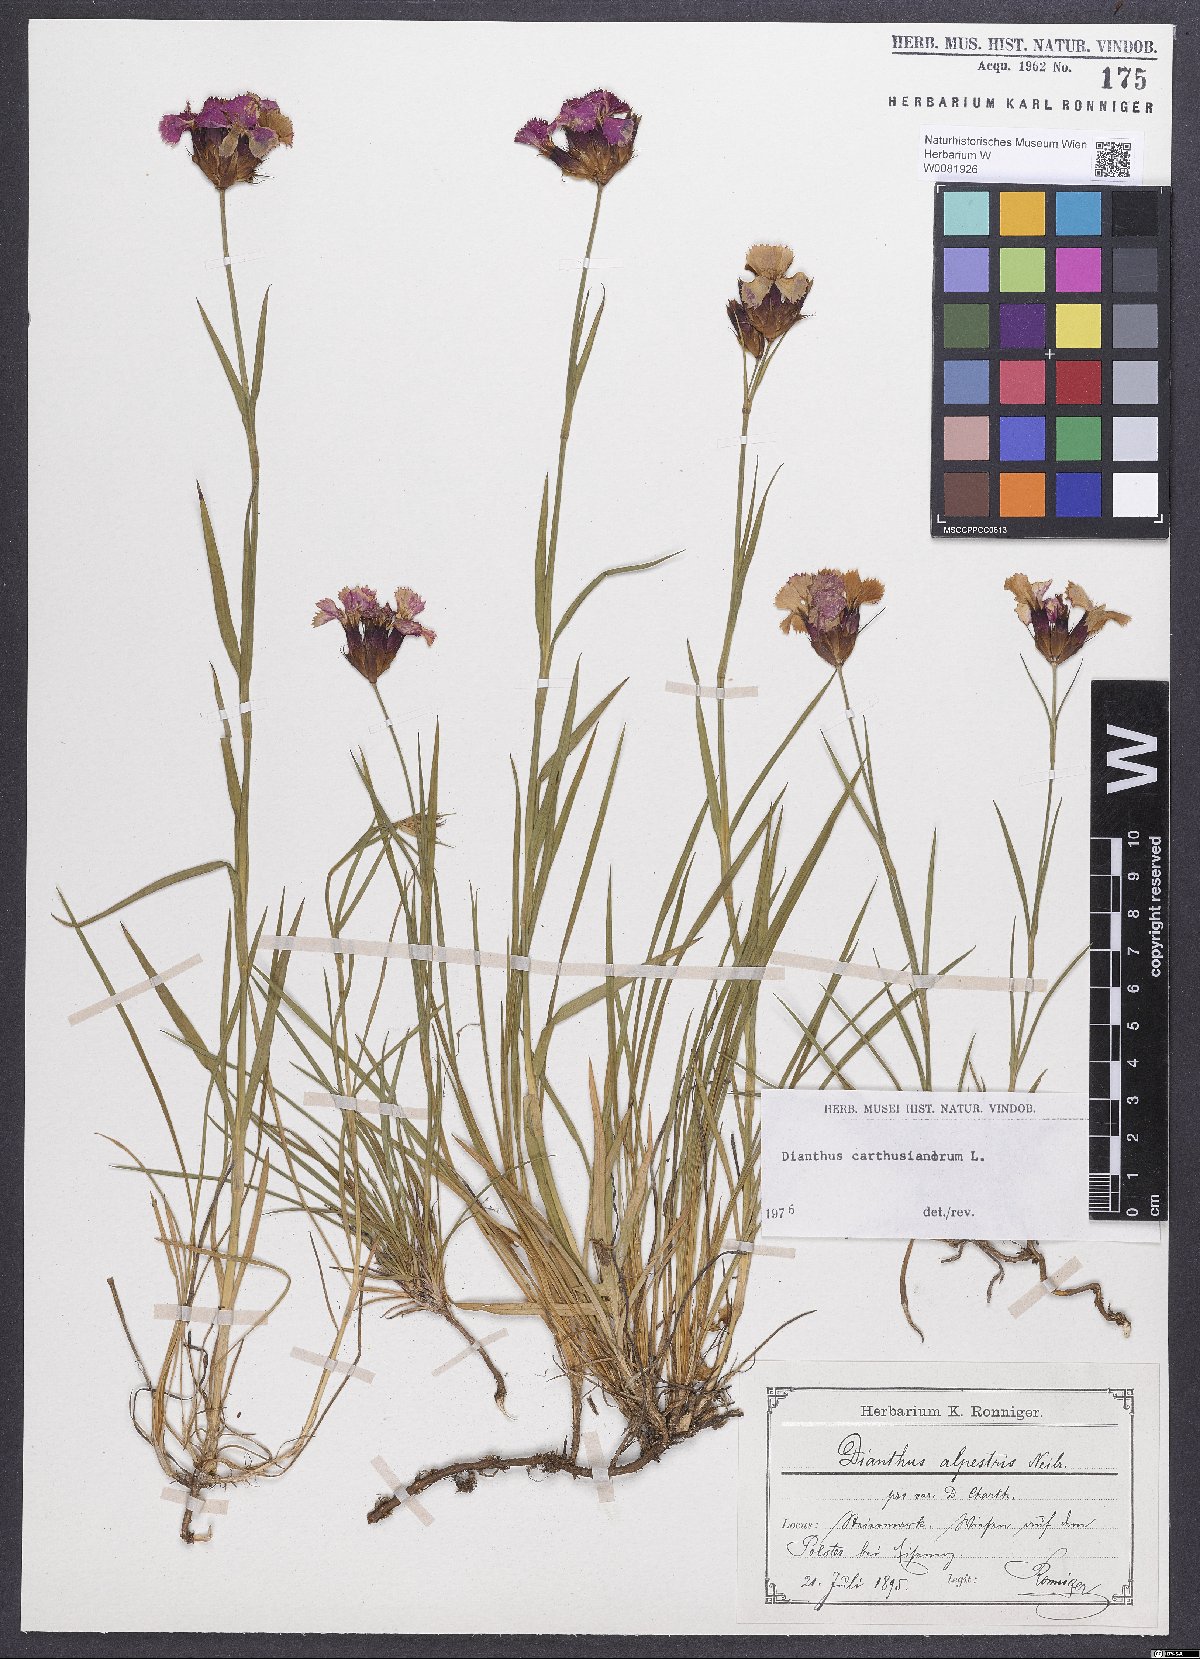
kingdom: Plantae
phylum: Tracheophyta
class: Magnoliopsida
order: Caryophyllales
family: Caryophyllaceae
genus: Dianthus
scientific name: Dianthus carthusianorum
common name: Carthusian pink
